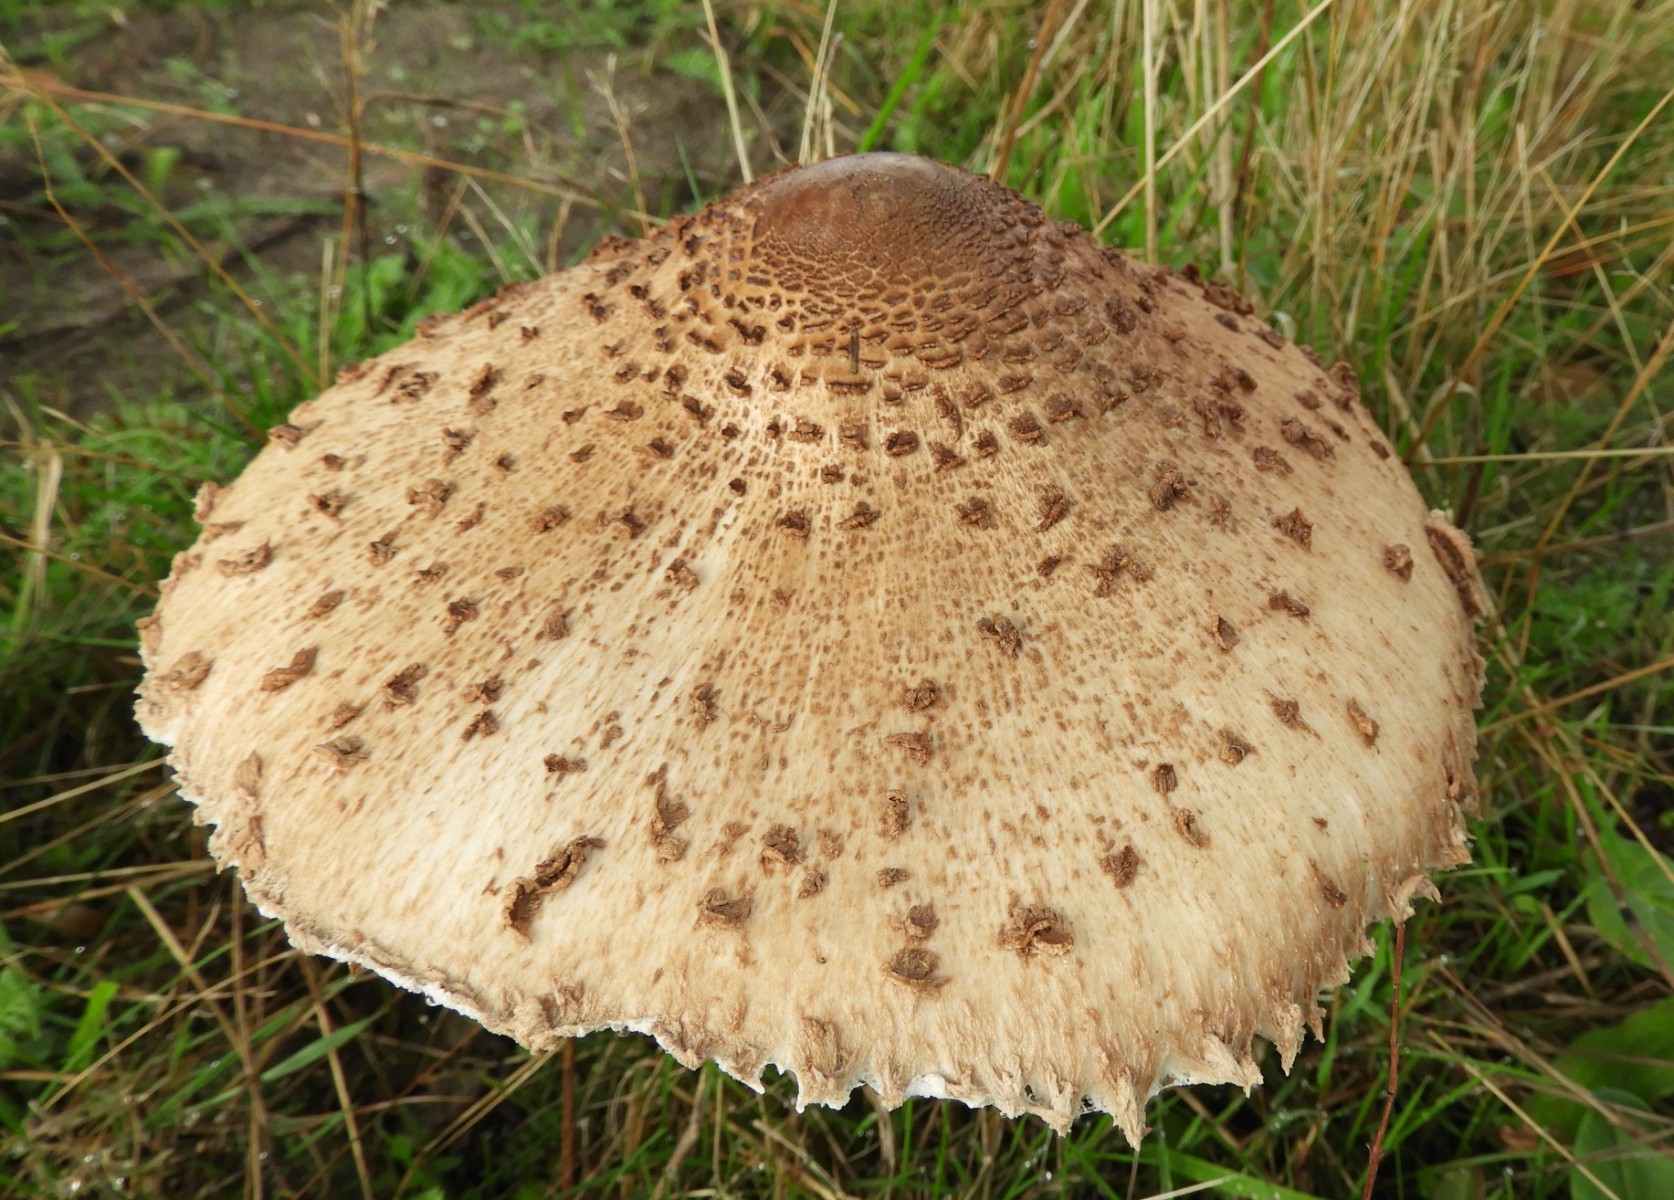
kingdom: Fungi
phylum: Basidiomycota
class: Agaricomycetes
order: Agaricales
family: Agaricaceae
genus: Macrolepiota
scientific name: Macrolepiota procera
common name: stor kæmpeparasolhat
